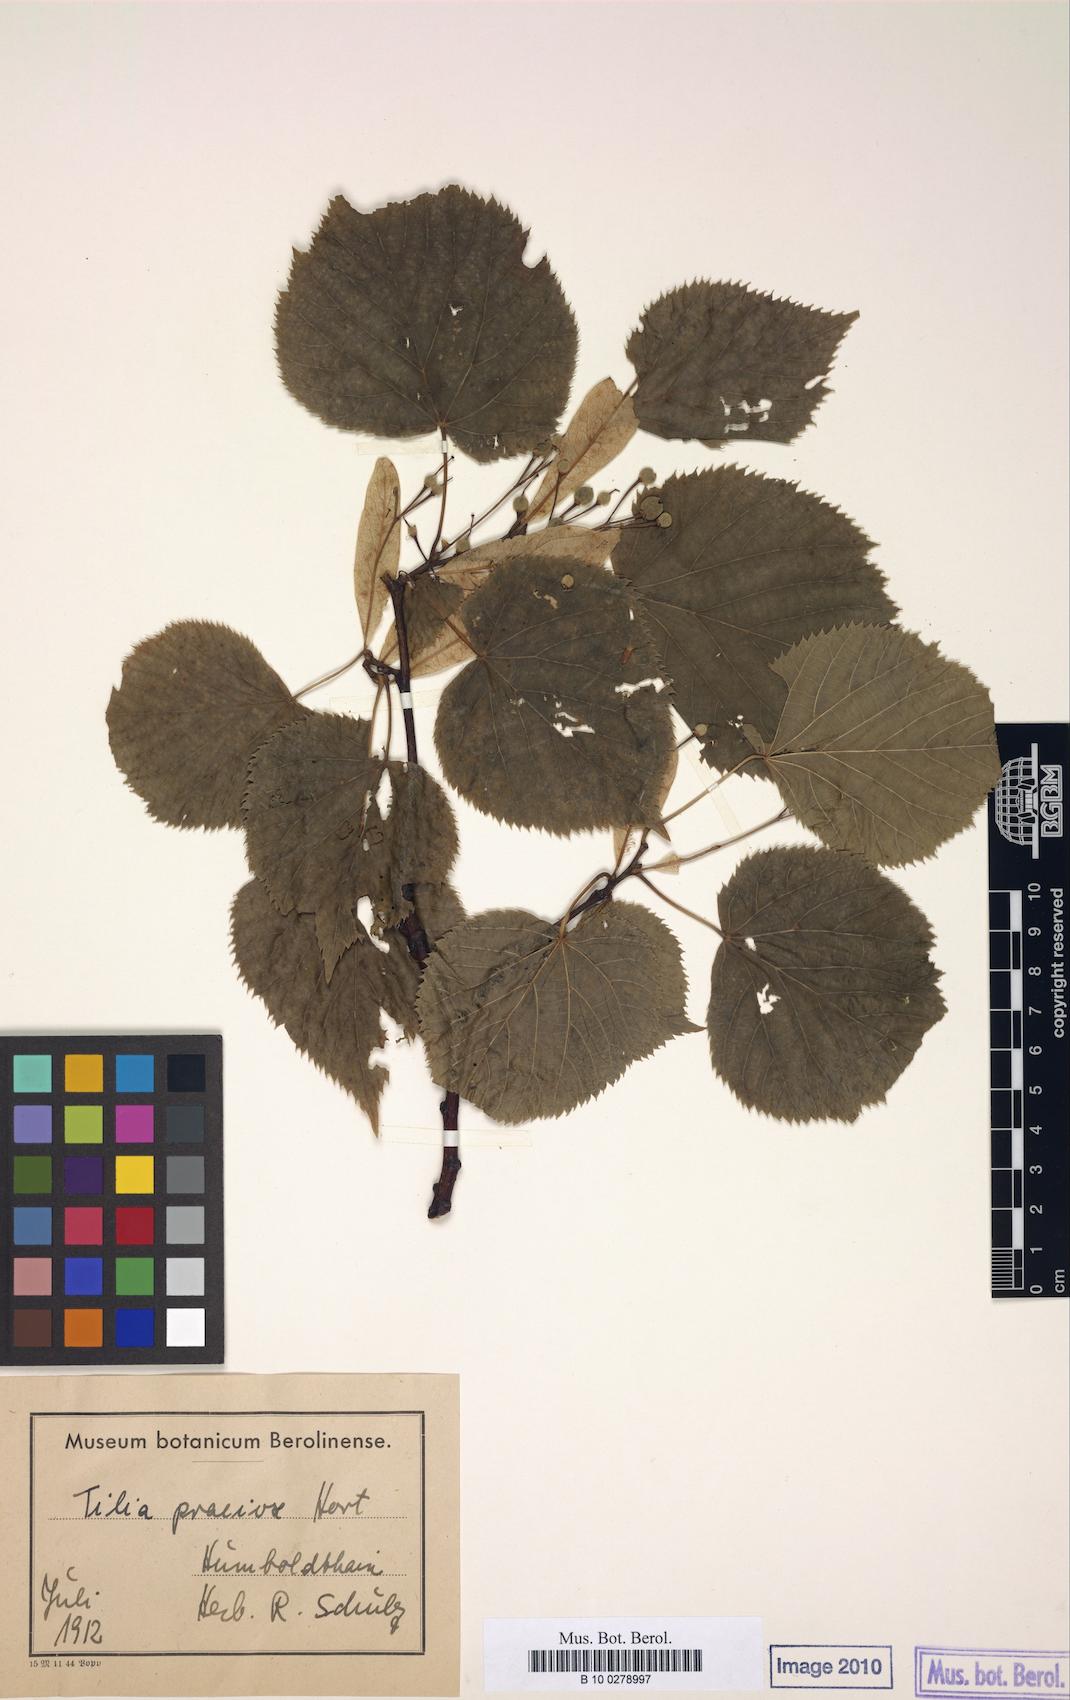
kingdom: Plantae
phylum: Tracheophyta
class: Magnoliopsida
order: Malvales
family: Malvaceae
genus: Tilia
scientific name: Tilia flaccida
